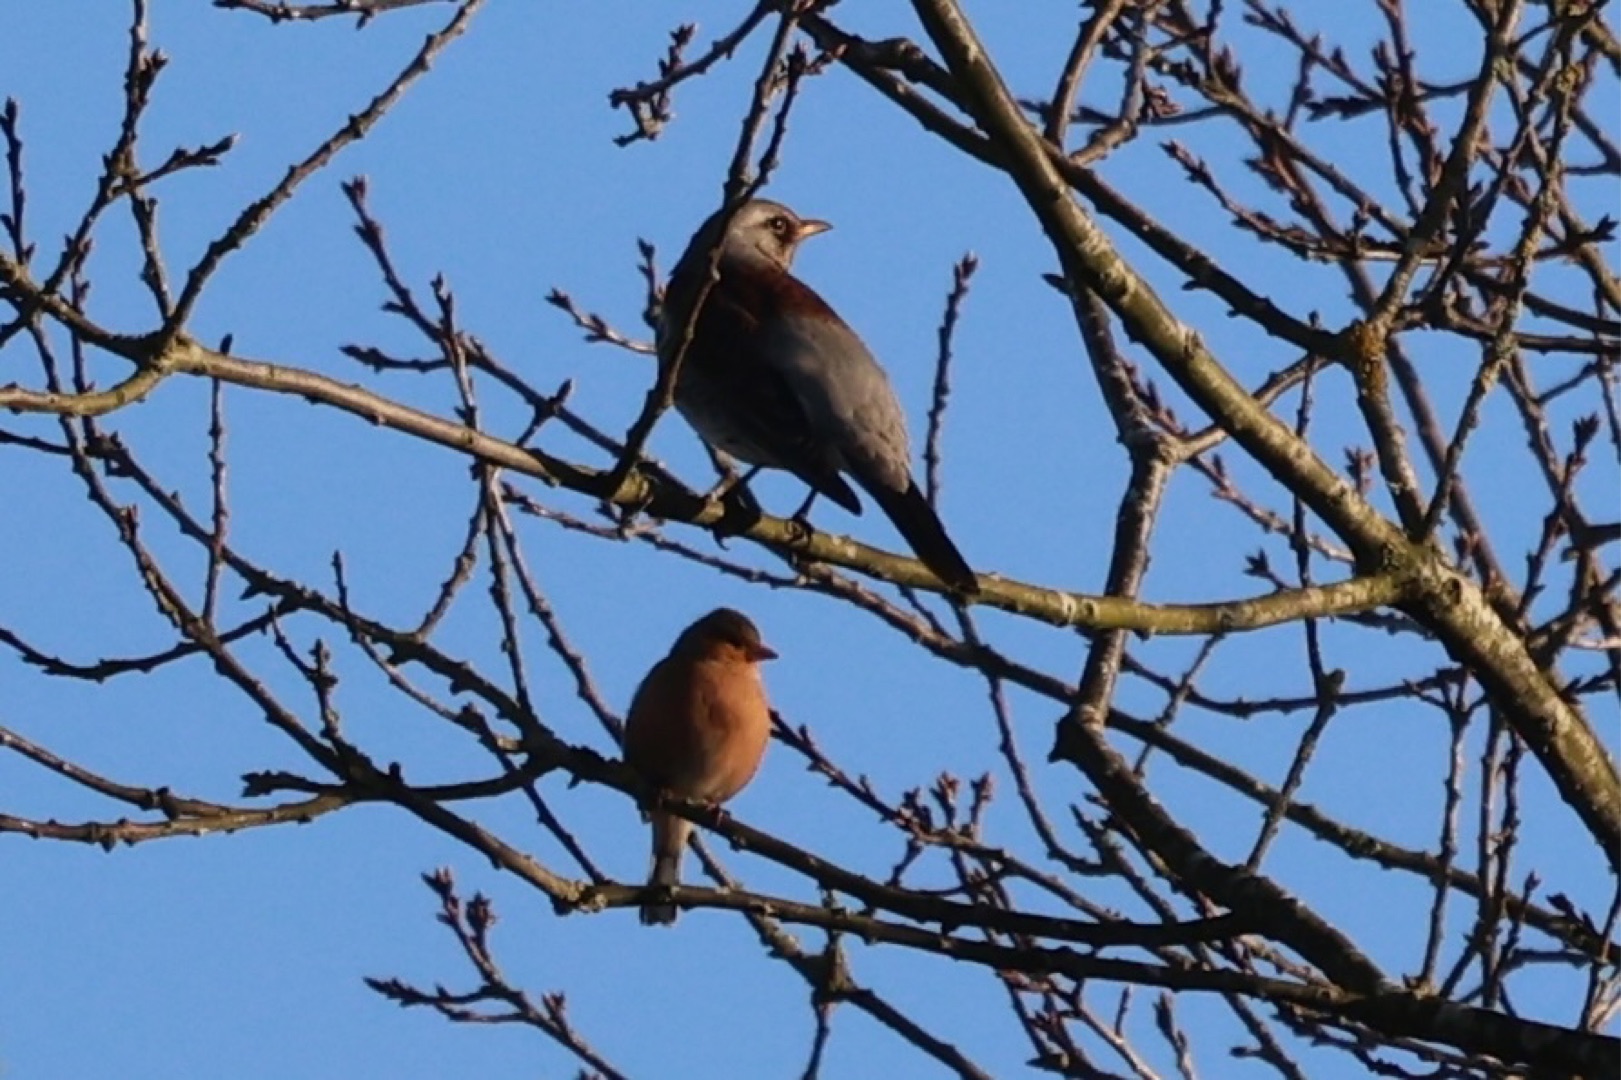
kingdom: Animalia
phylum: Chordata
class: Aves
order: Passeriformes
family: Turdidae
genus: Turdus
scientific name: Turdus pilaris
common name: Sjagger
